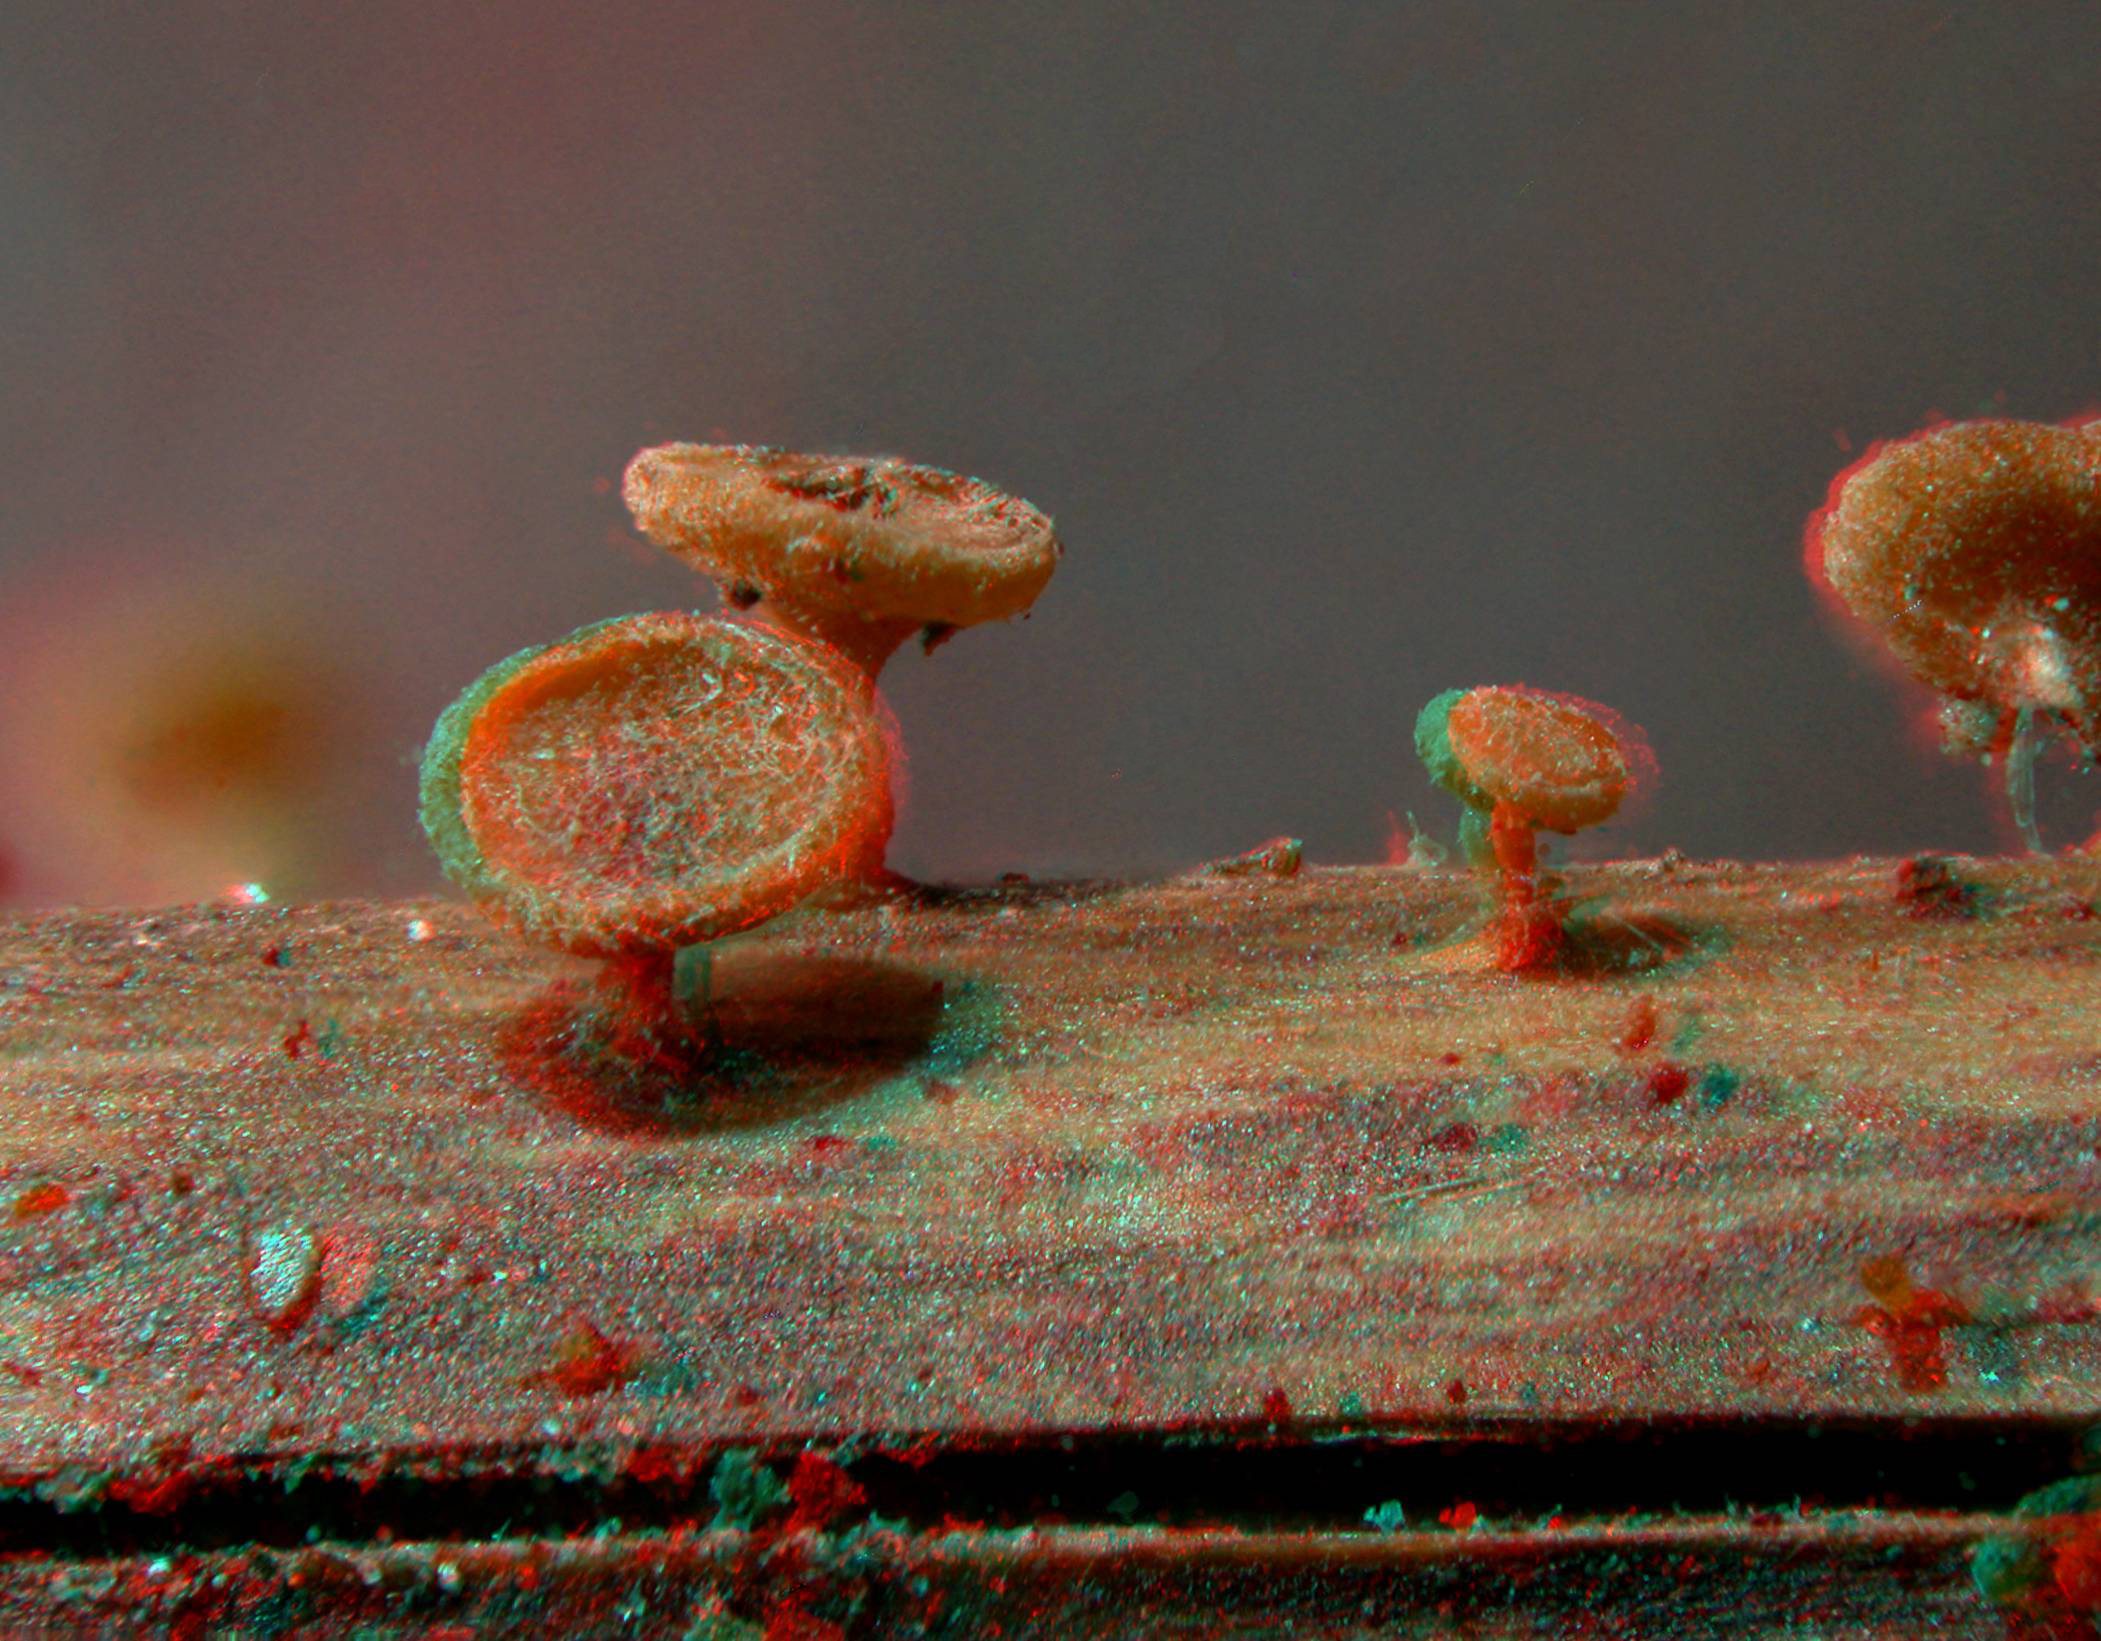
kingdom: Fungi
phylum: Ascomycota
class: Leotiomycetes
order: Helotiales
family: Helotiaceae
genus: Hymenoscyphus
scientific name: Hymenoscyphus scutula
